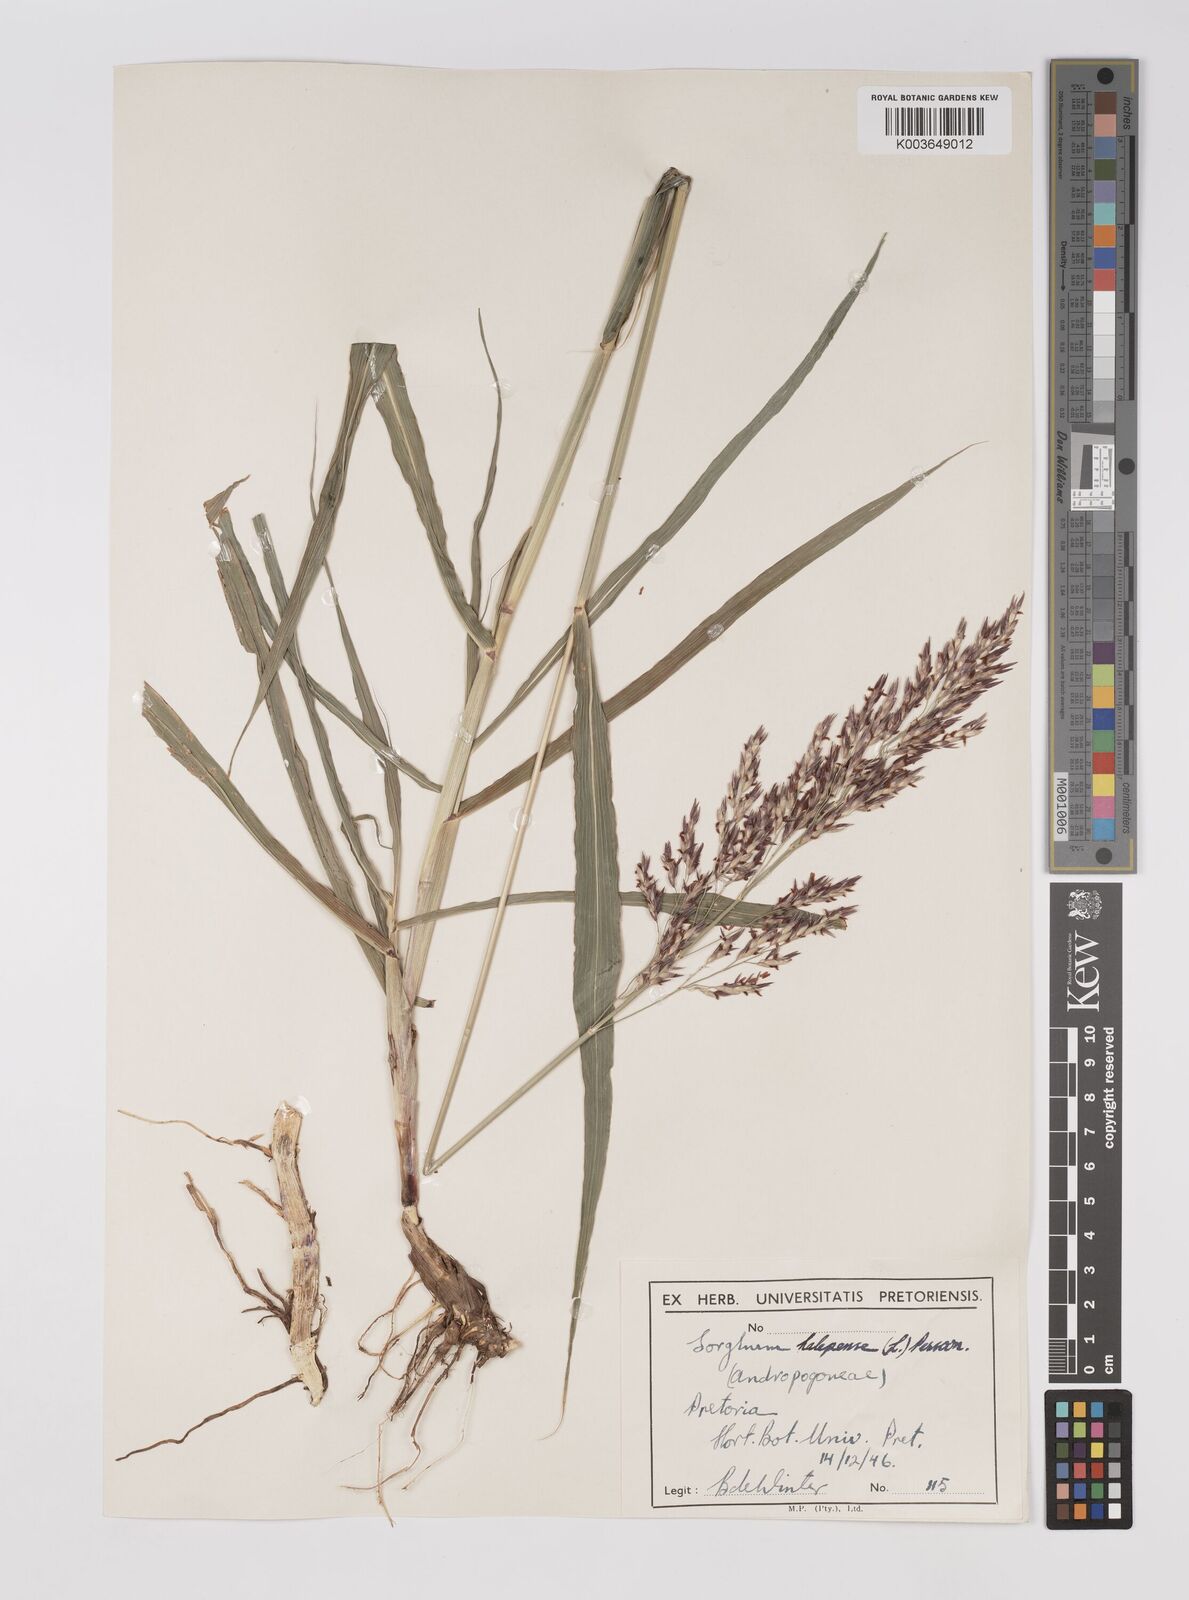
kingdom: Plantae
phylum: Tracheophyta
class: Liliopsida
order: Poales
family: Poaceae
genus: Sorghum
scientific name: Sorghum halepense
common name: Johnson-grass
